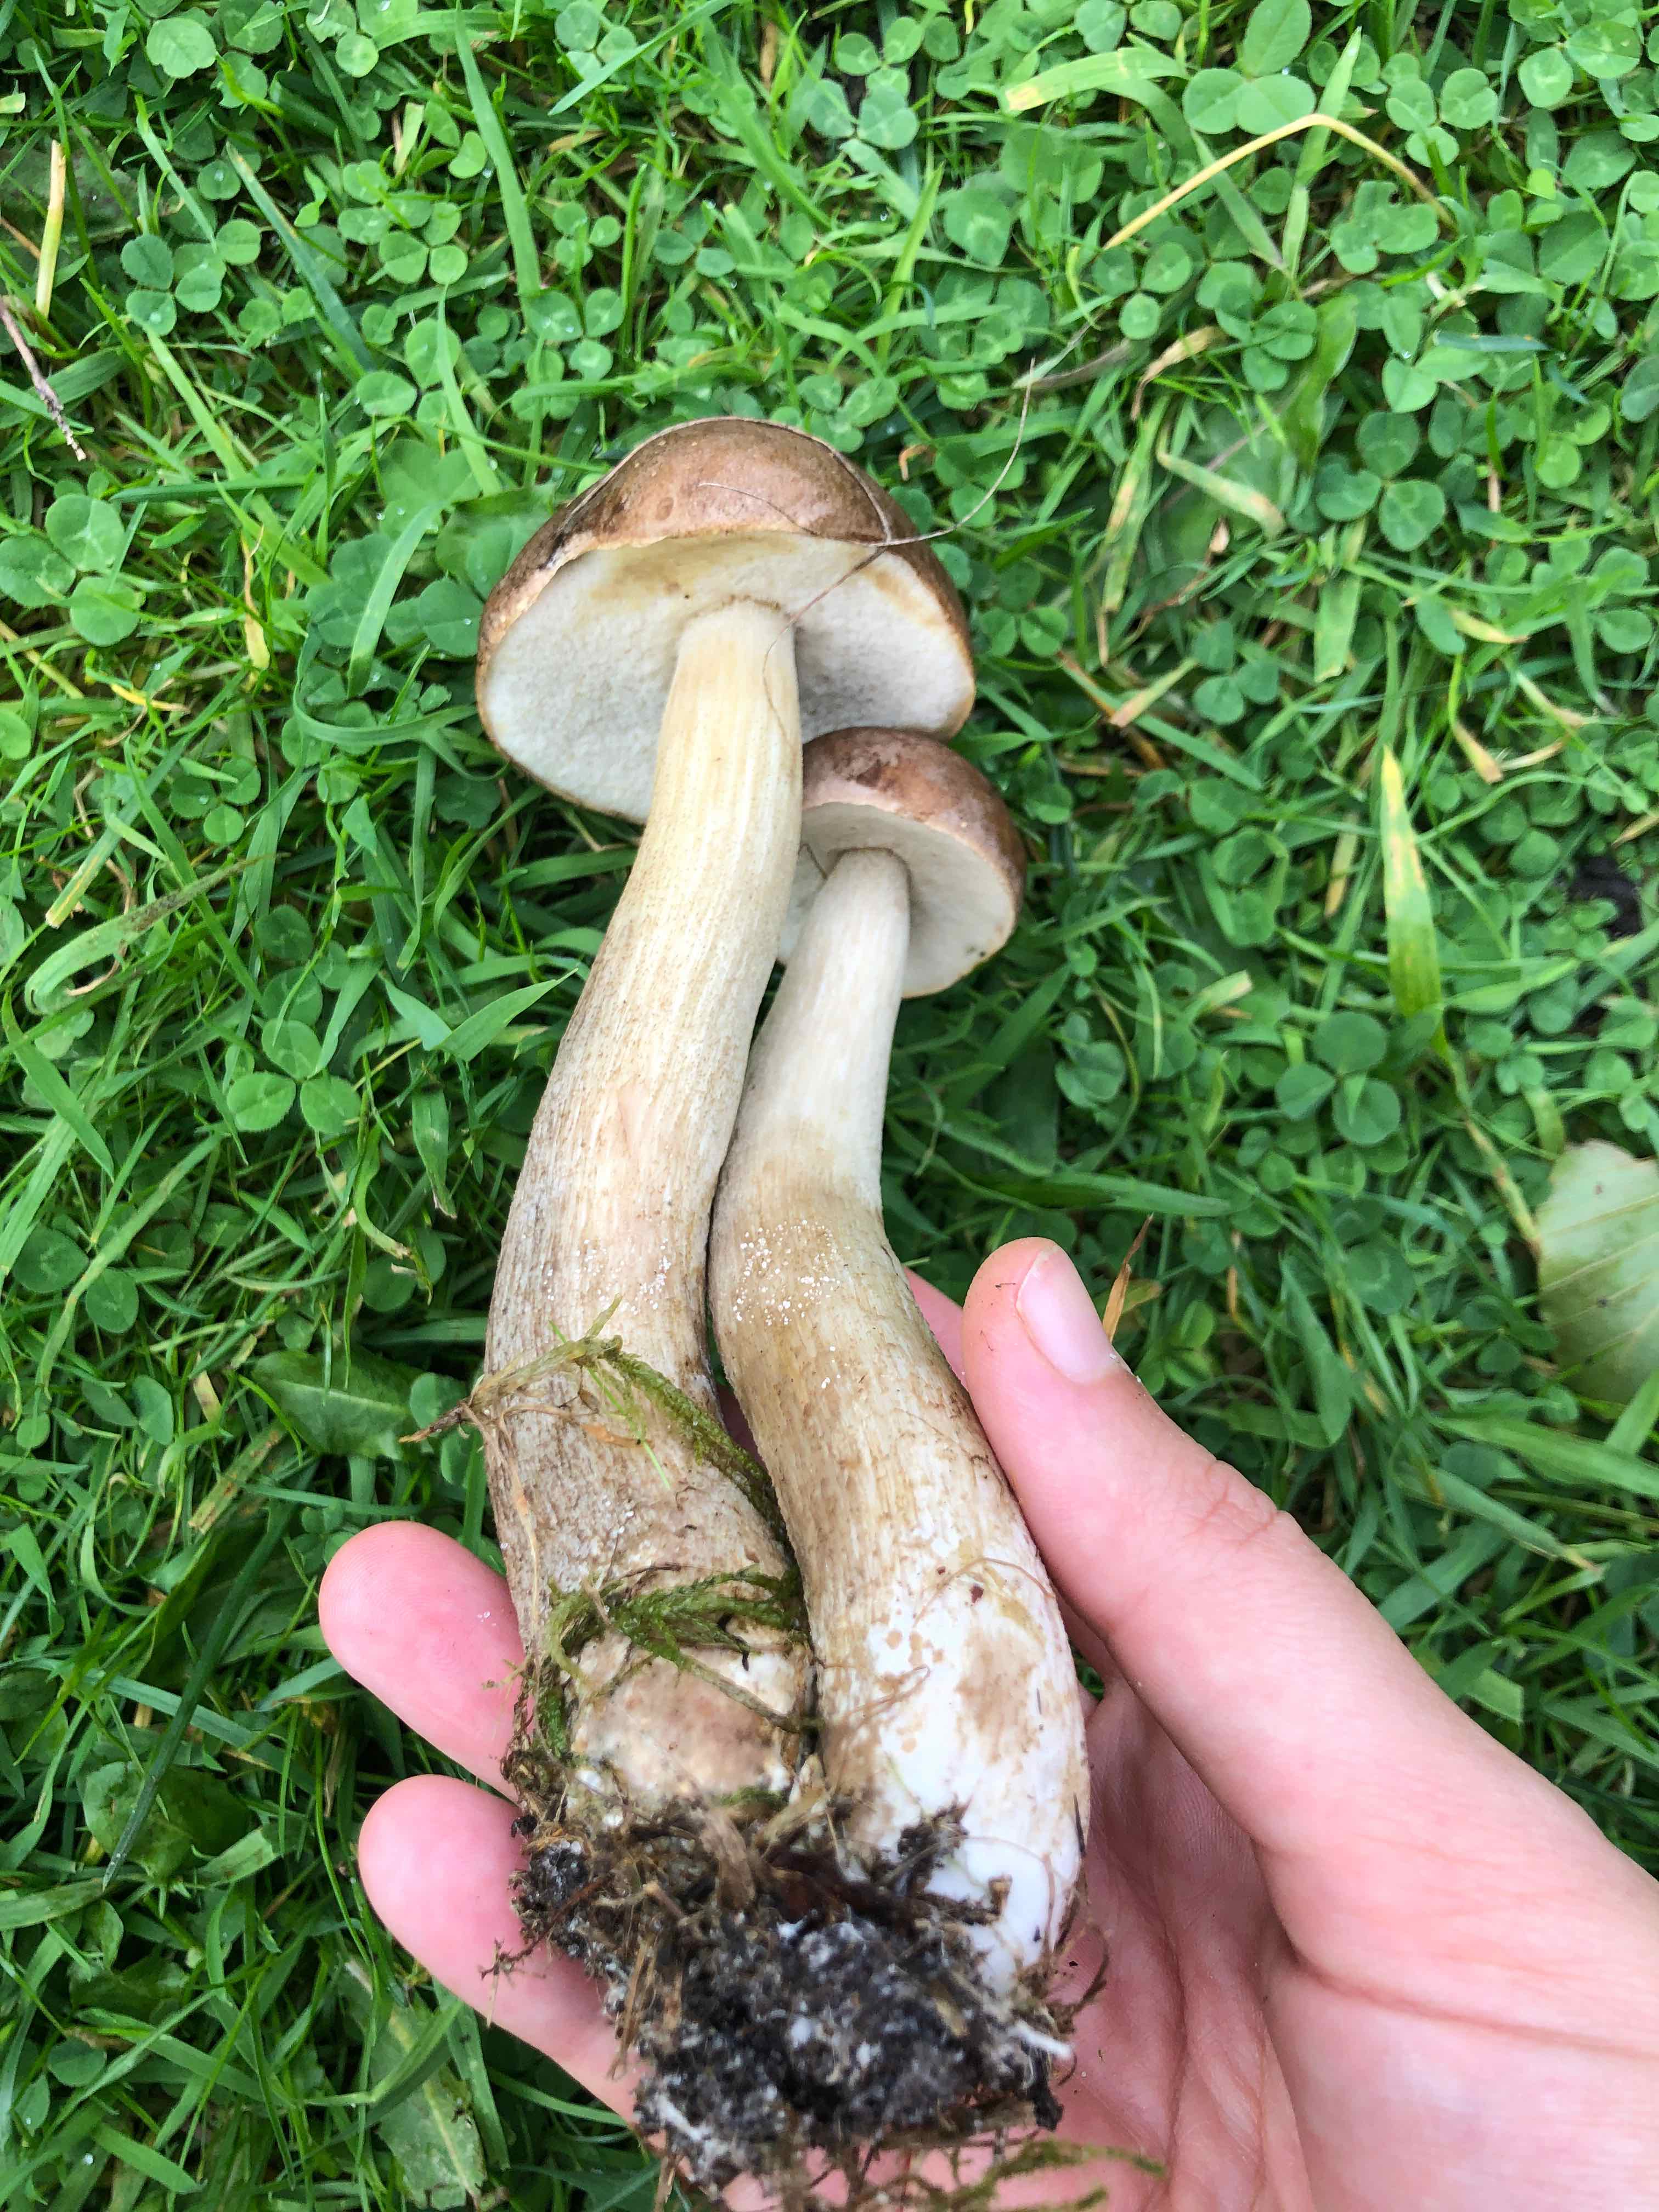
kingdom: Fungi
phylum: Basidiomycota
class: Agaricomycetes
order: Boletales
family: Boletaceae
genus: Leccinum
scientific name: Leccinum
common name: skælrørhat
